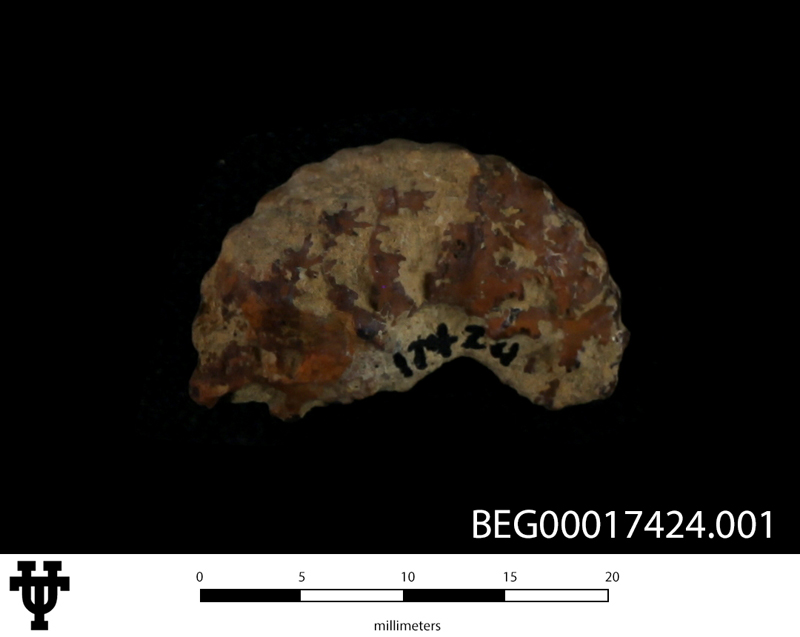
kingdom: Animalia
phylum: Mollusca
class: Cephalopoda
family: Lyelliceratidae
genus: Stoliczkaiella
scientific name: Stoliczkaiella Acanthoceras worthense
